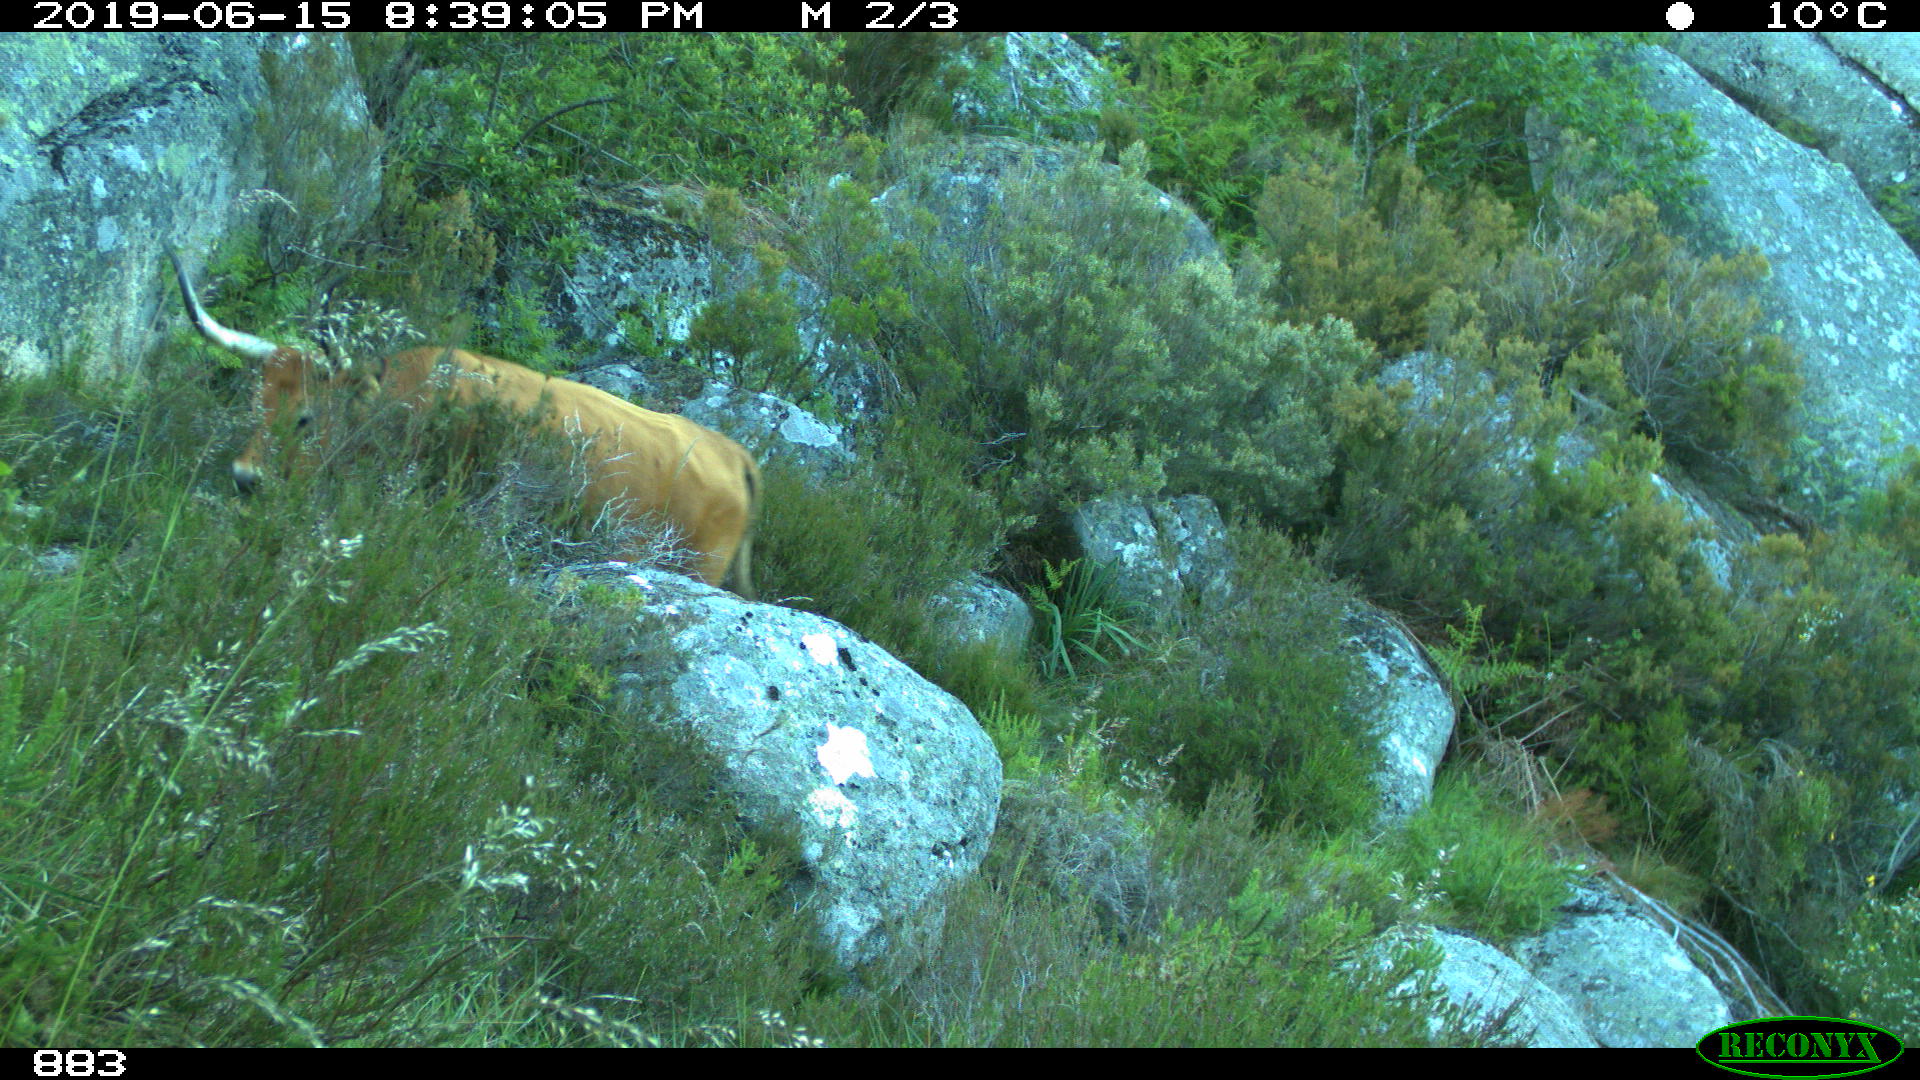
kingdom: Animalia
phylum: Chordata
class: Mammalia
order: Artiodactyla
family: Bovidae
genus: Bos
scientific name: Bos taurus
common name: Domesticated cattle
